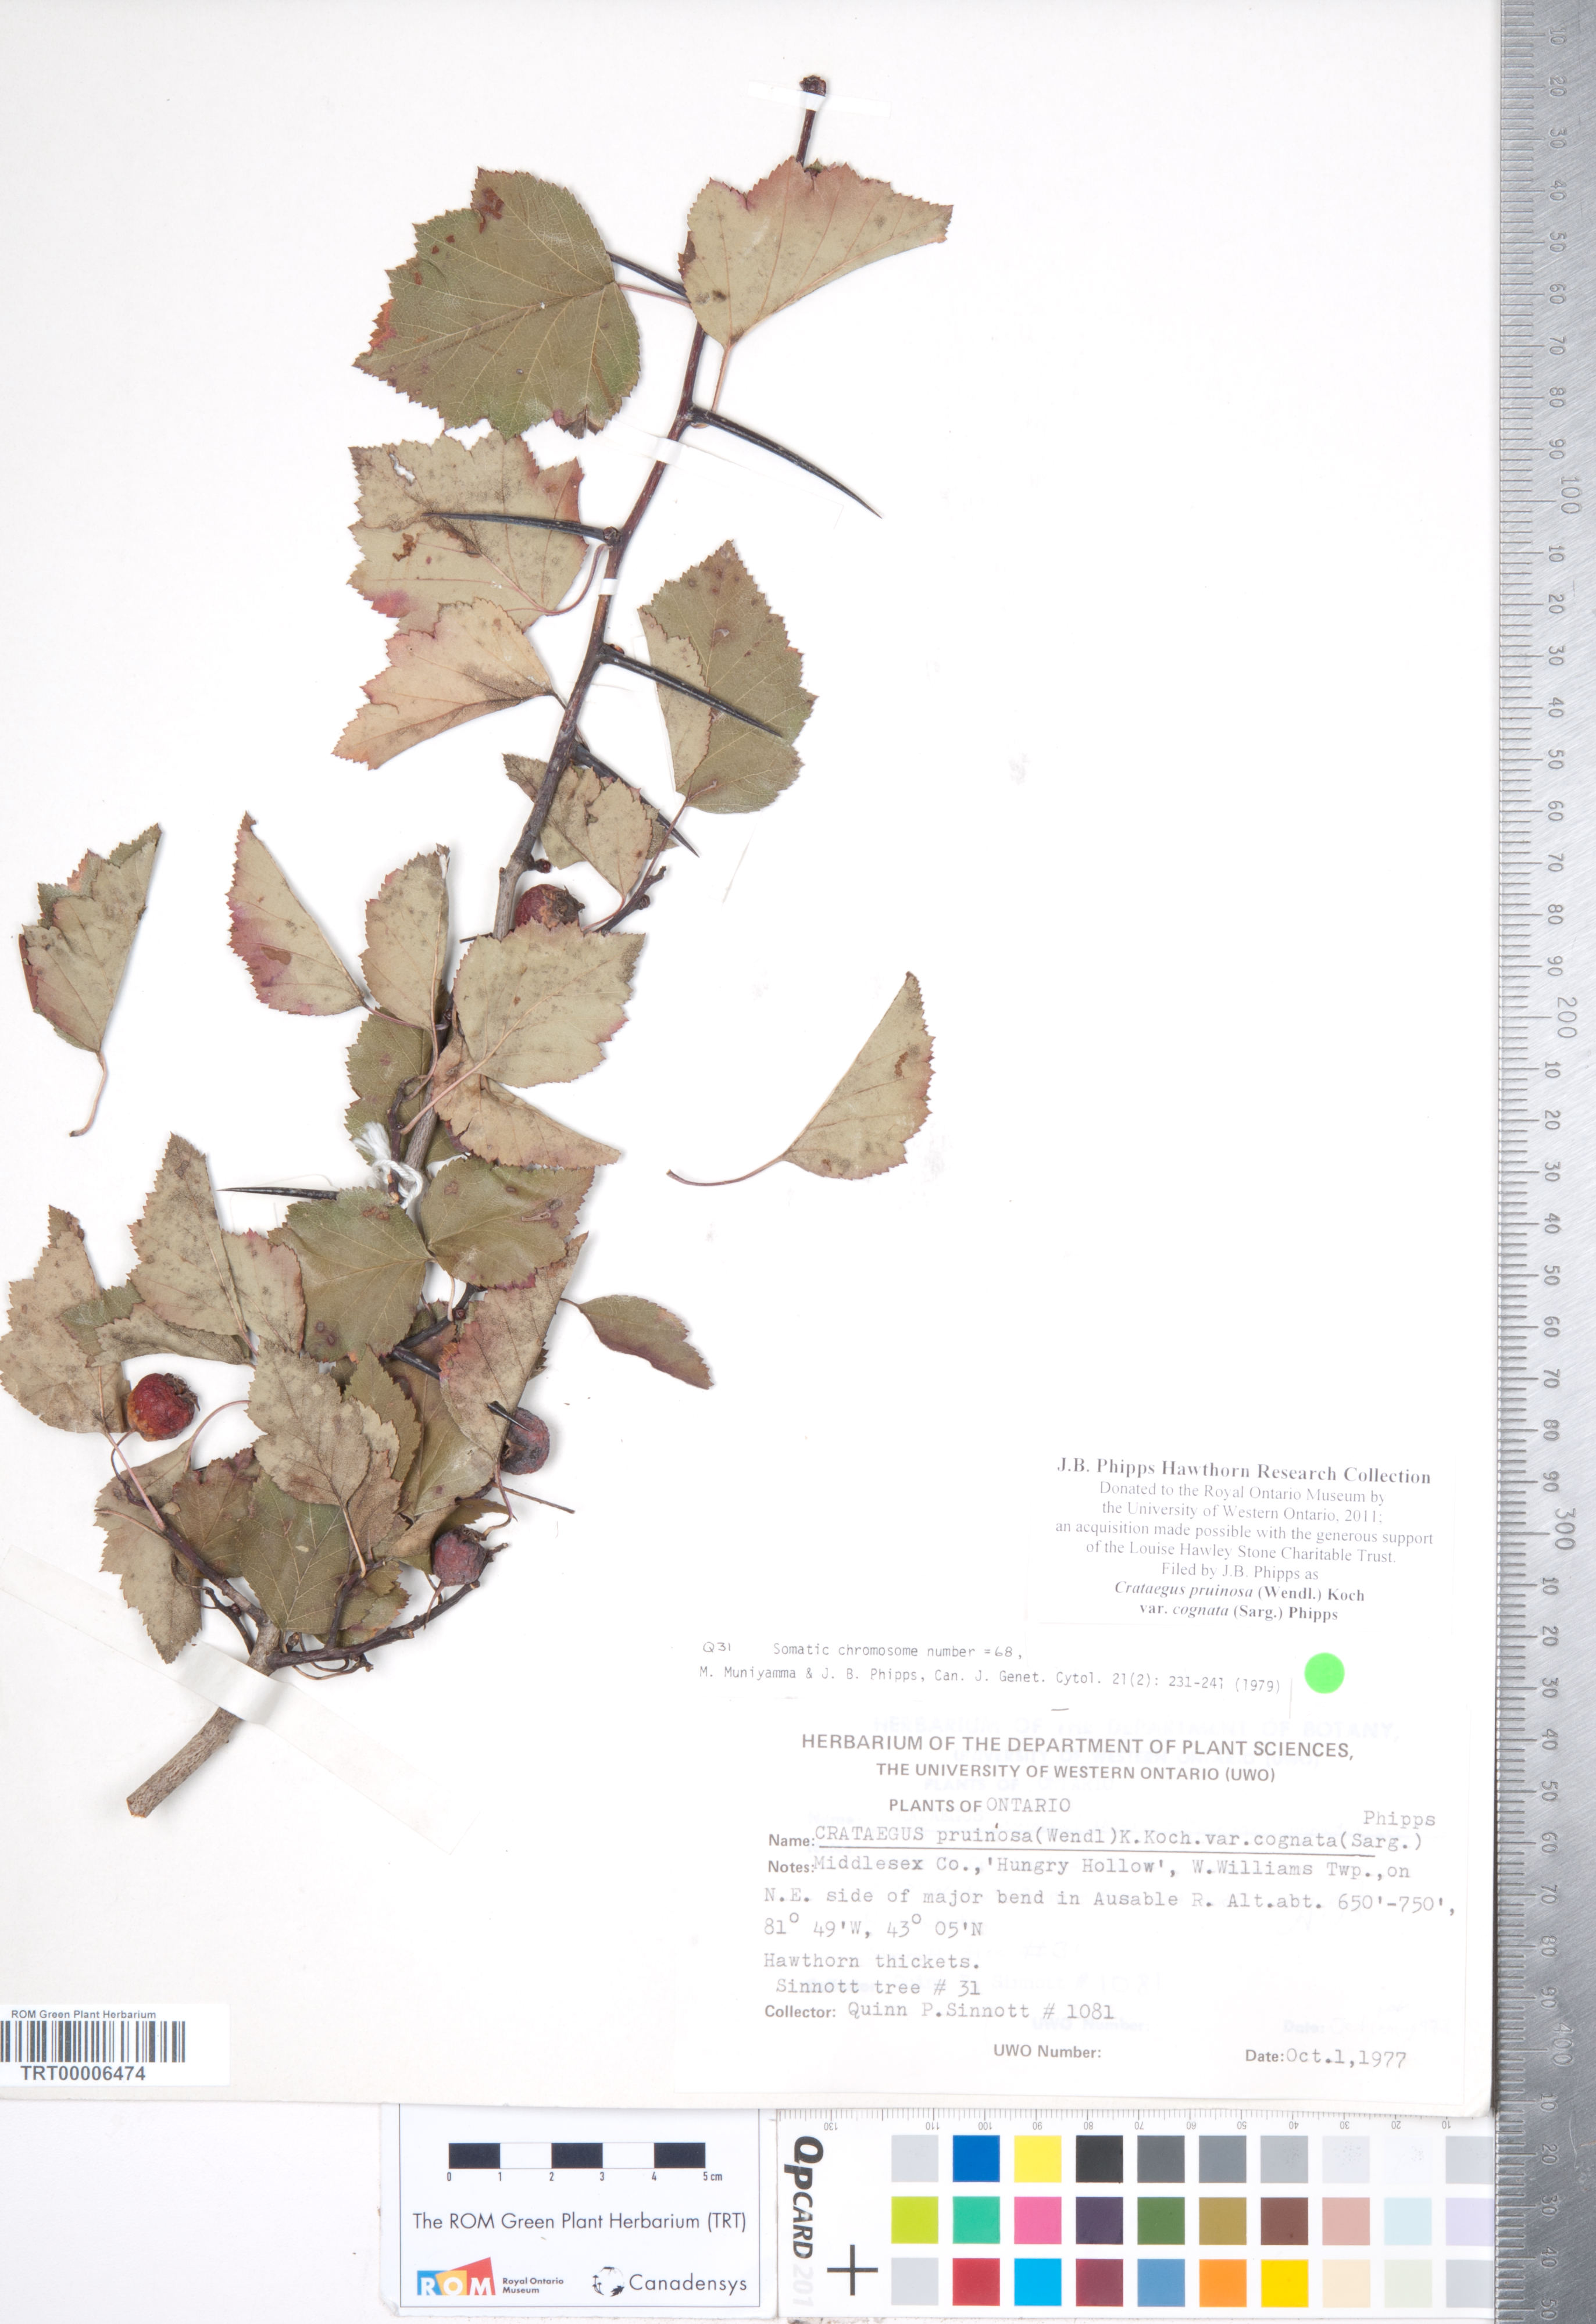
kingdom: Plantae
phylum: Tracheophyta
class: Magnoliopsida
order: Rosales
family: Rosaceae
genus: Crataegus
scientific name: Crataegus
